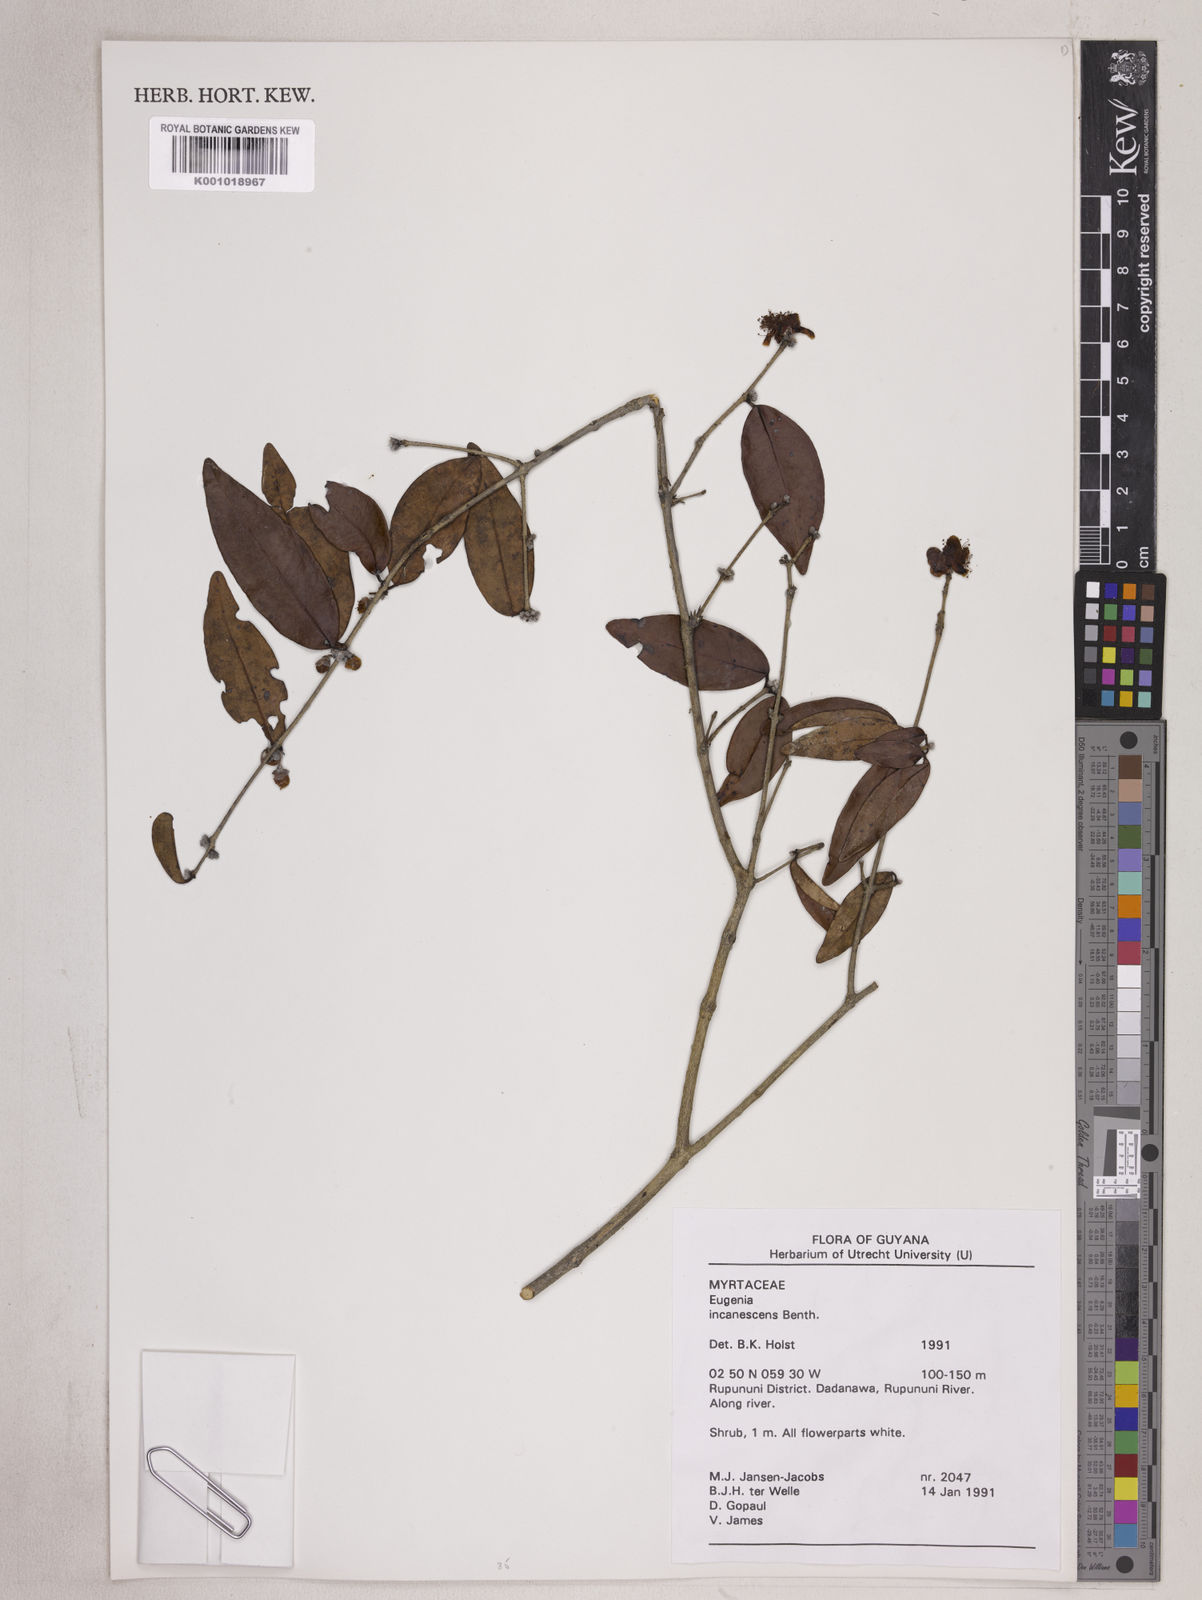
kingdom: Plantae
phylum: Tracheophyta
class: Magnoliopsida
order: Myrtales
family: Myrtaceae
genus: Eugenia
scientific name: Eugenia incanescens
